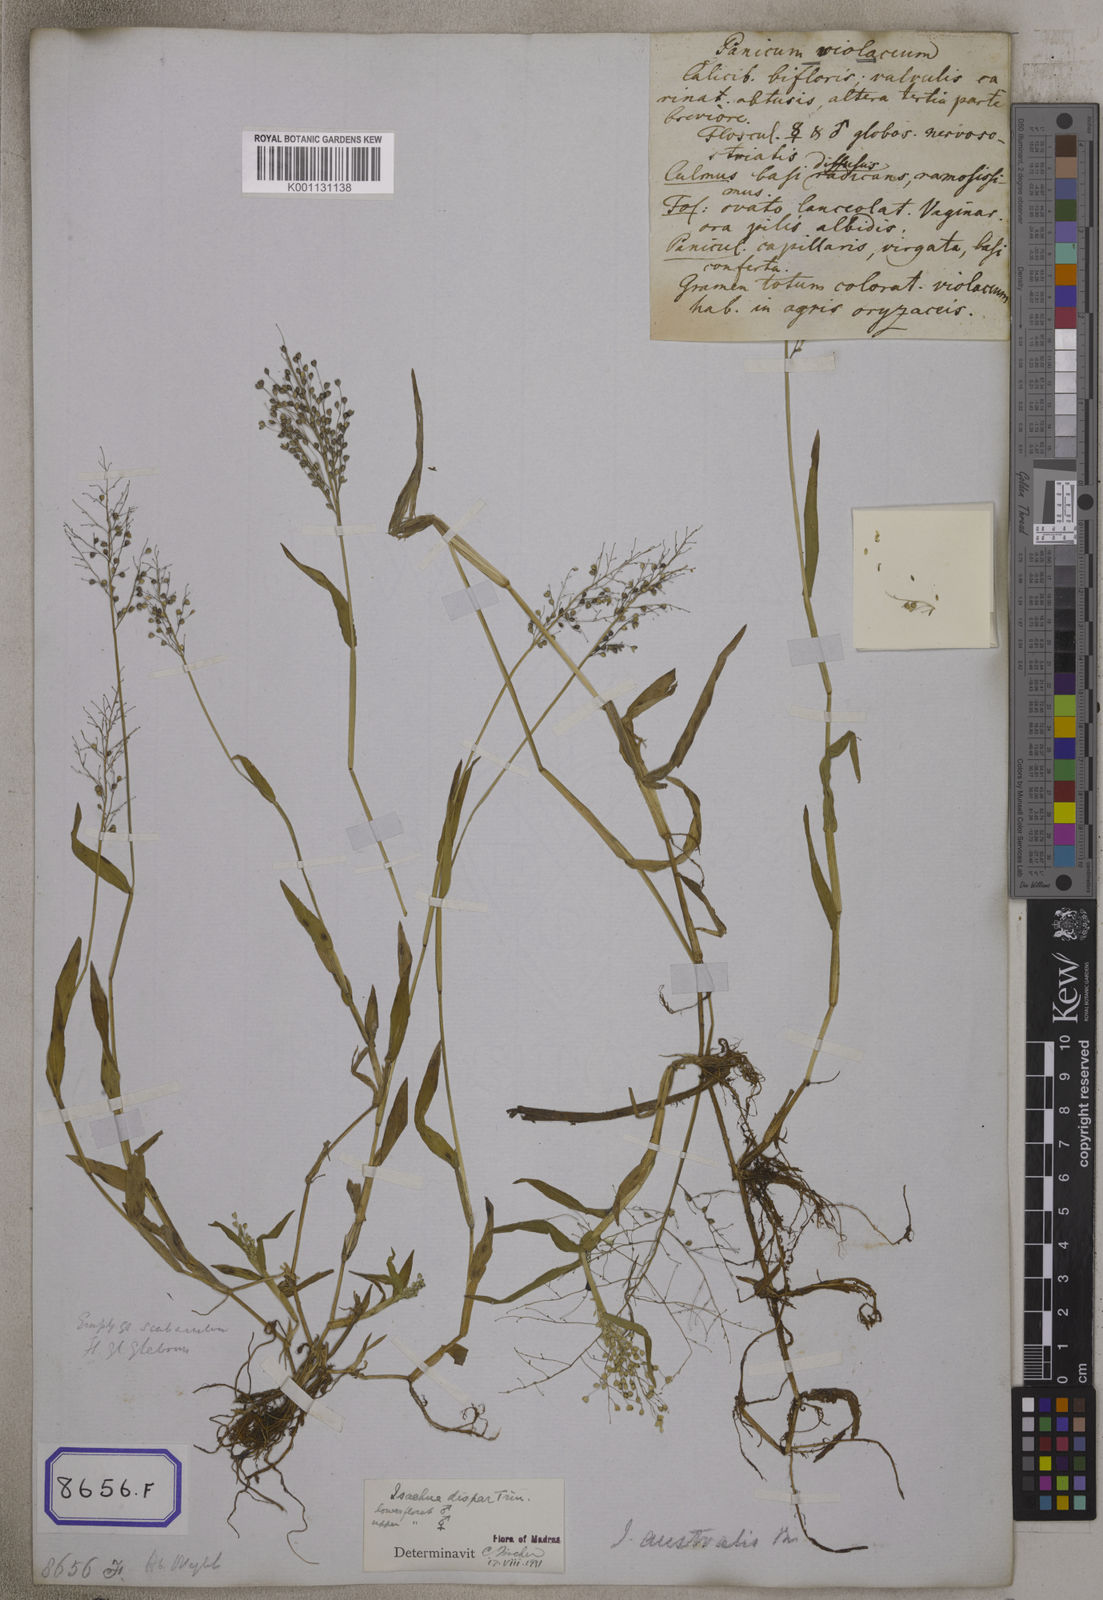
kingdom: Plantae
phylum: Tracheophyta
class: Liliopsida
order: Poales
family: Poaceae
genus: Isachne
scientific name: Isachne
